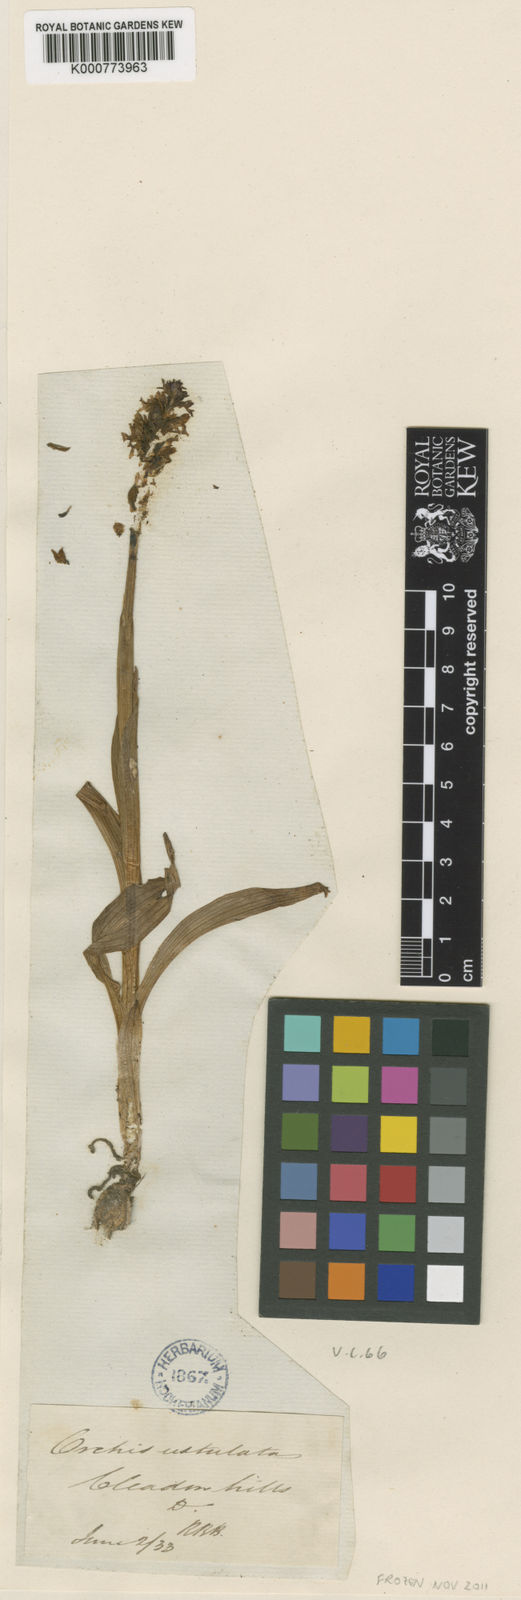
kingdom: Plantae
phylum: Tracheophyta
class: Liliopsida
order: Asparagales
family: Orchidaceae
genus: Neotinea
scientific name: Neotinea ustulata
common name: Burnt orchid
